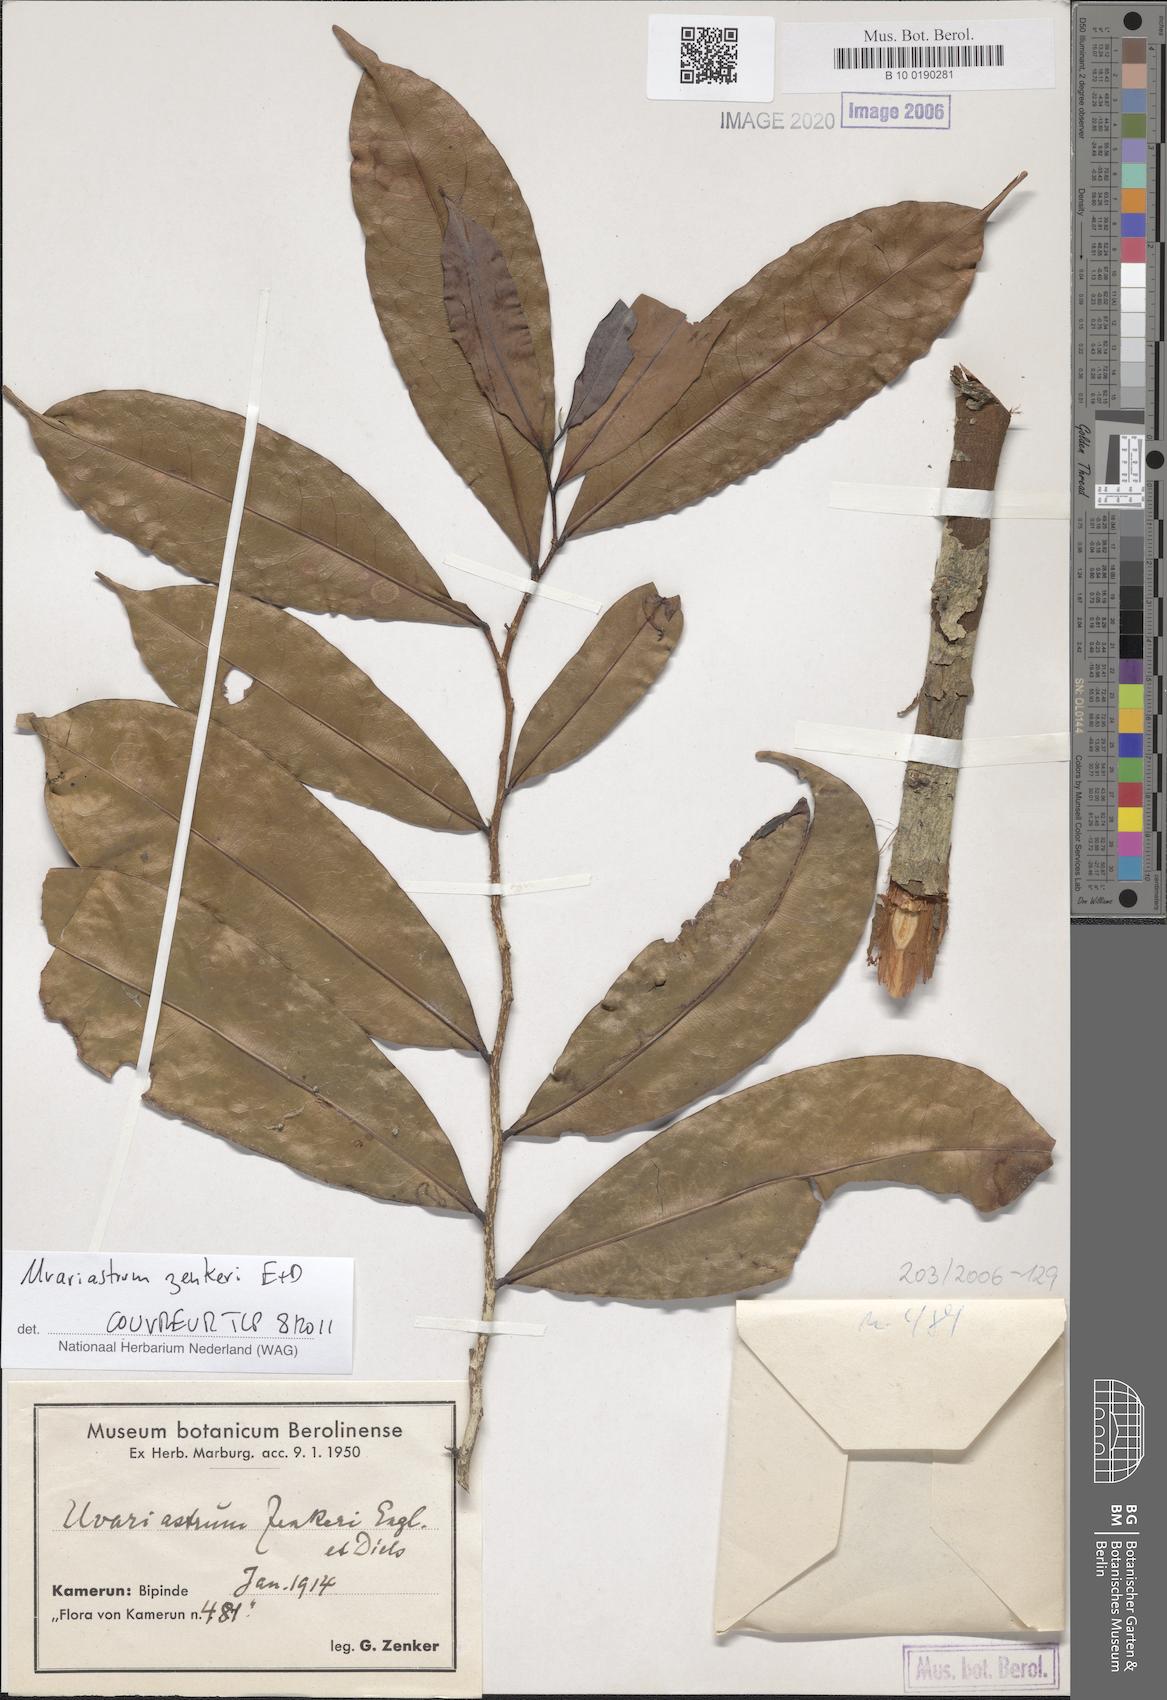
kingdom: Plantae
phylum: Tracheophyta
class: Magnoliopsida
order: Magnoliales
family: Annonaceae
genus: Uvariastrum
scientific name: Uvariastrum zenkeri
